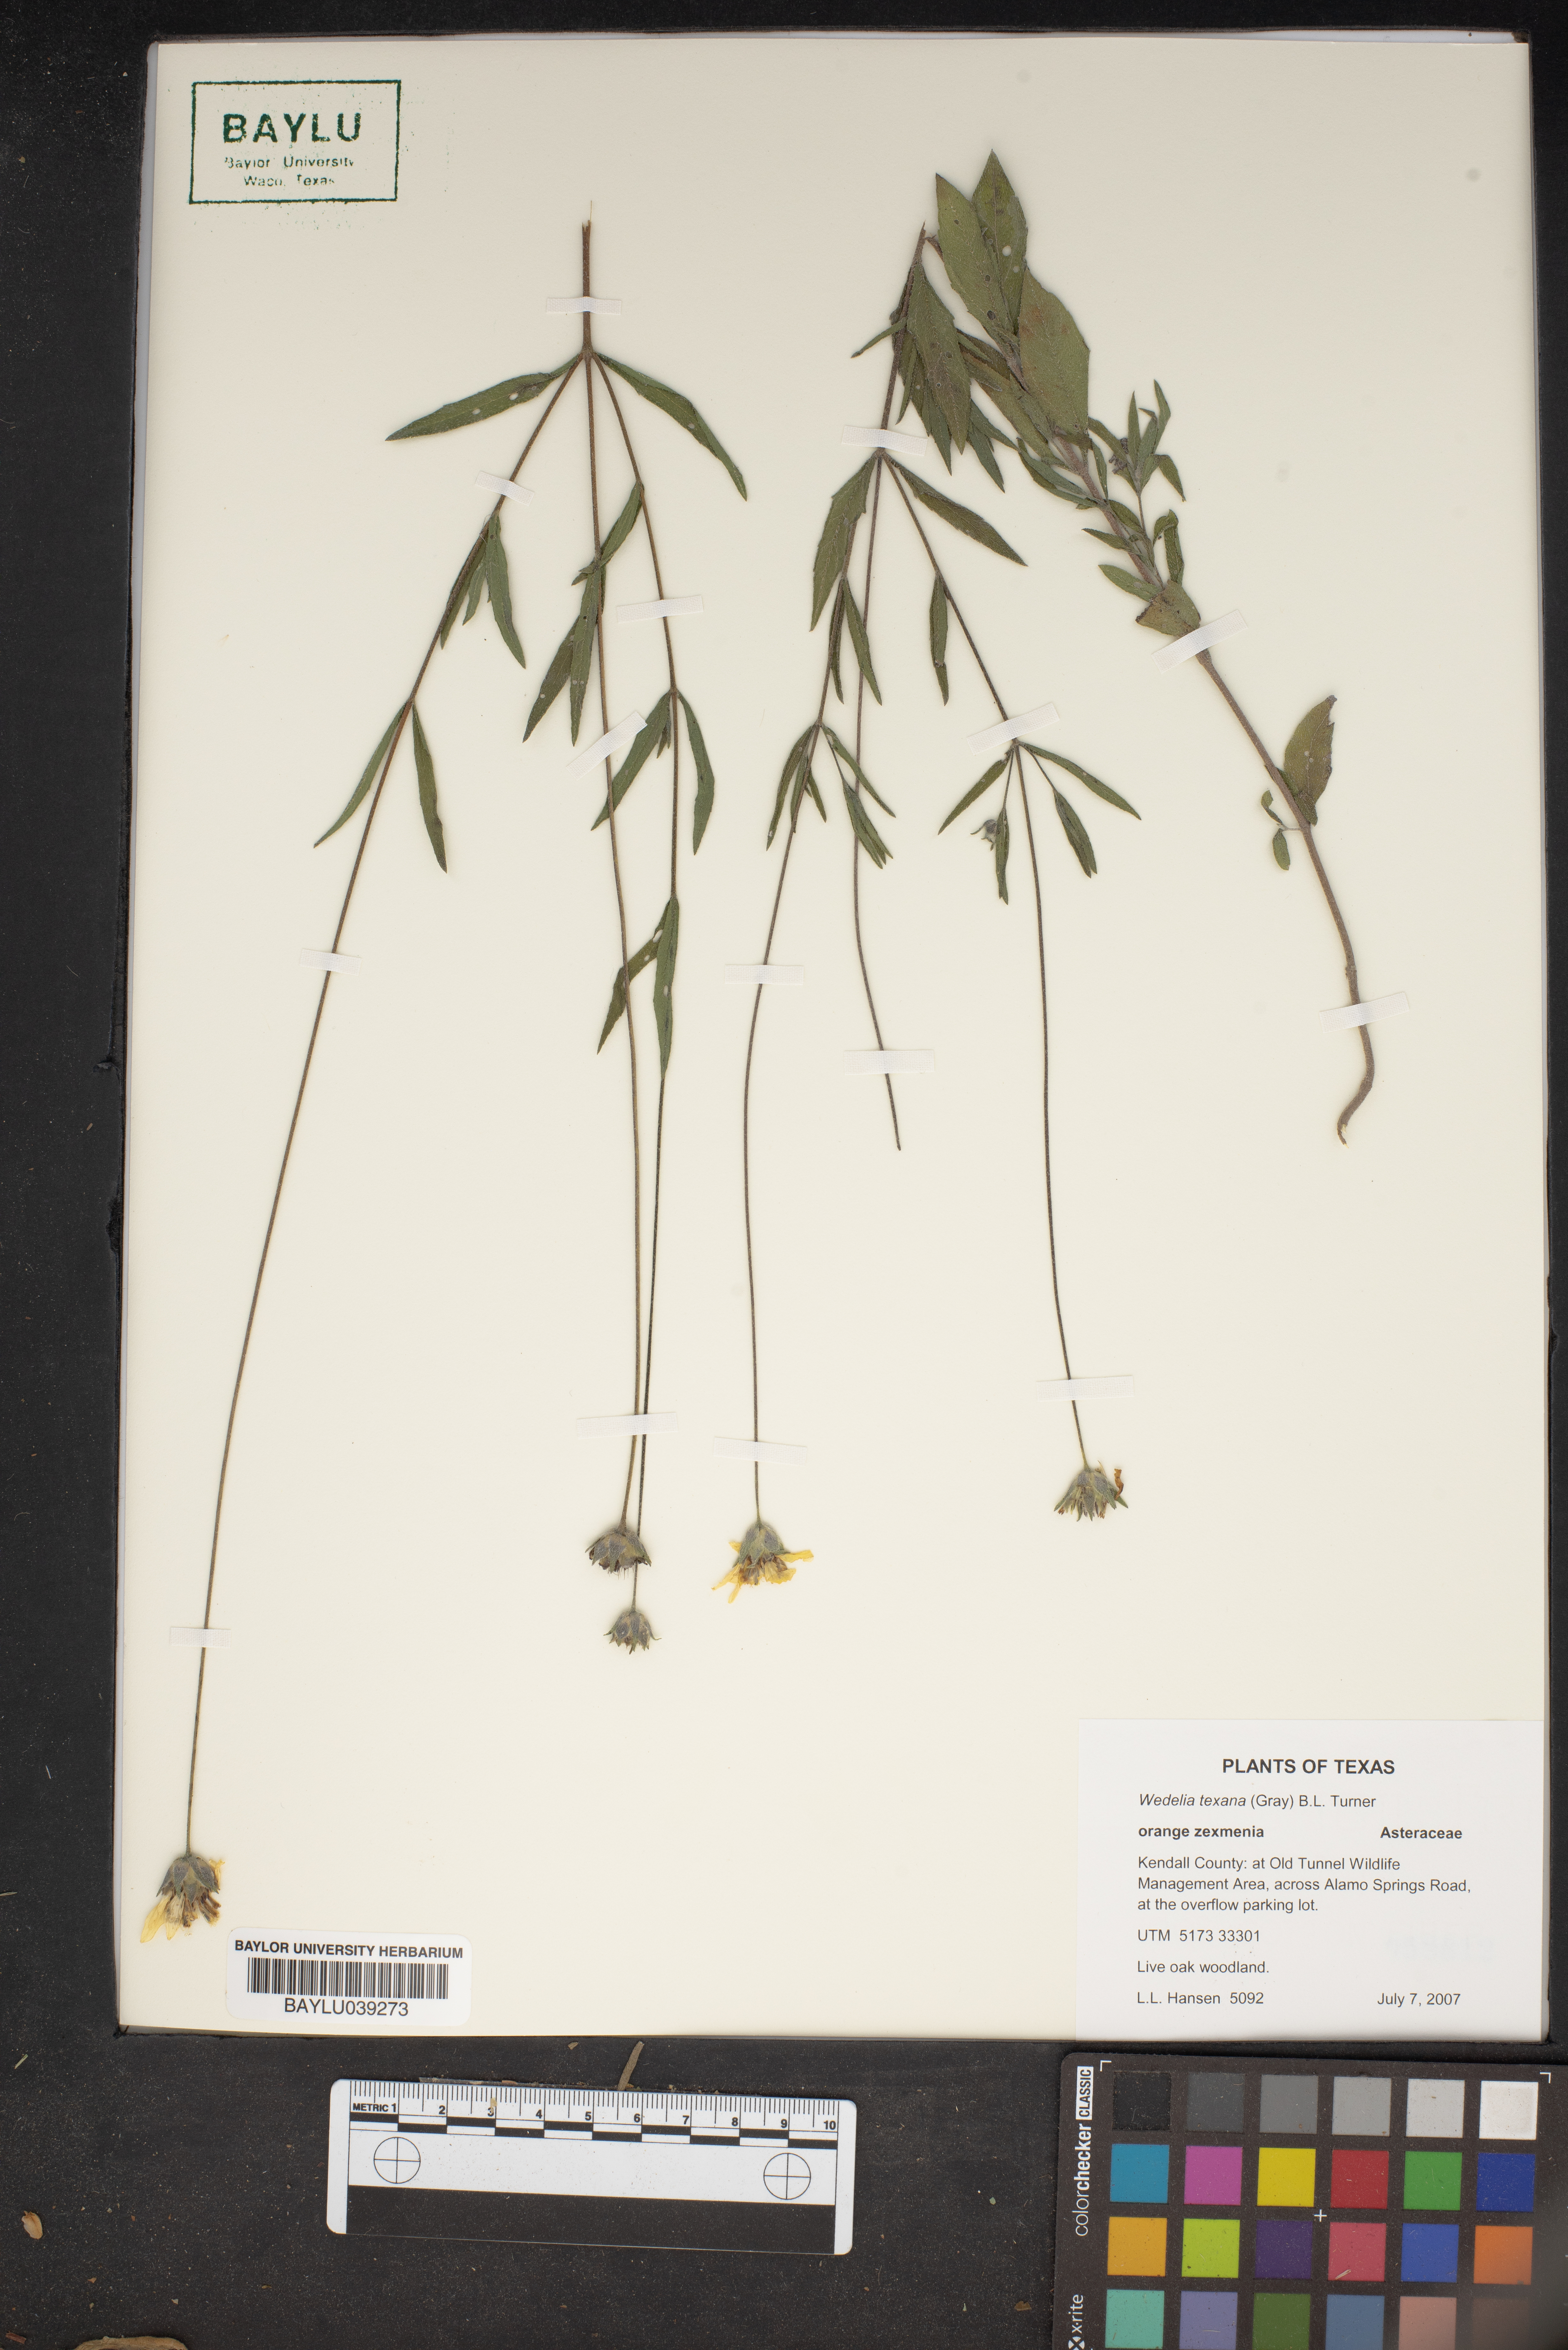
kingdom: Plantae
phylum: Tracheophyta
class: Magnoliopsida
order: Asterales
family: Asteraceae
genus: Wedelia
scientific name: Wedelia acapulcensis
